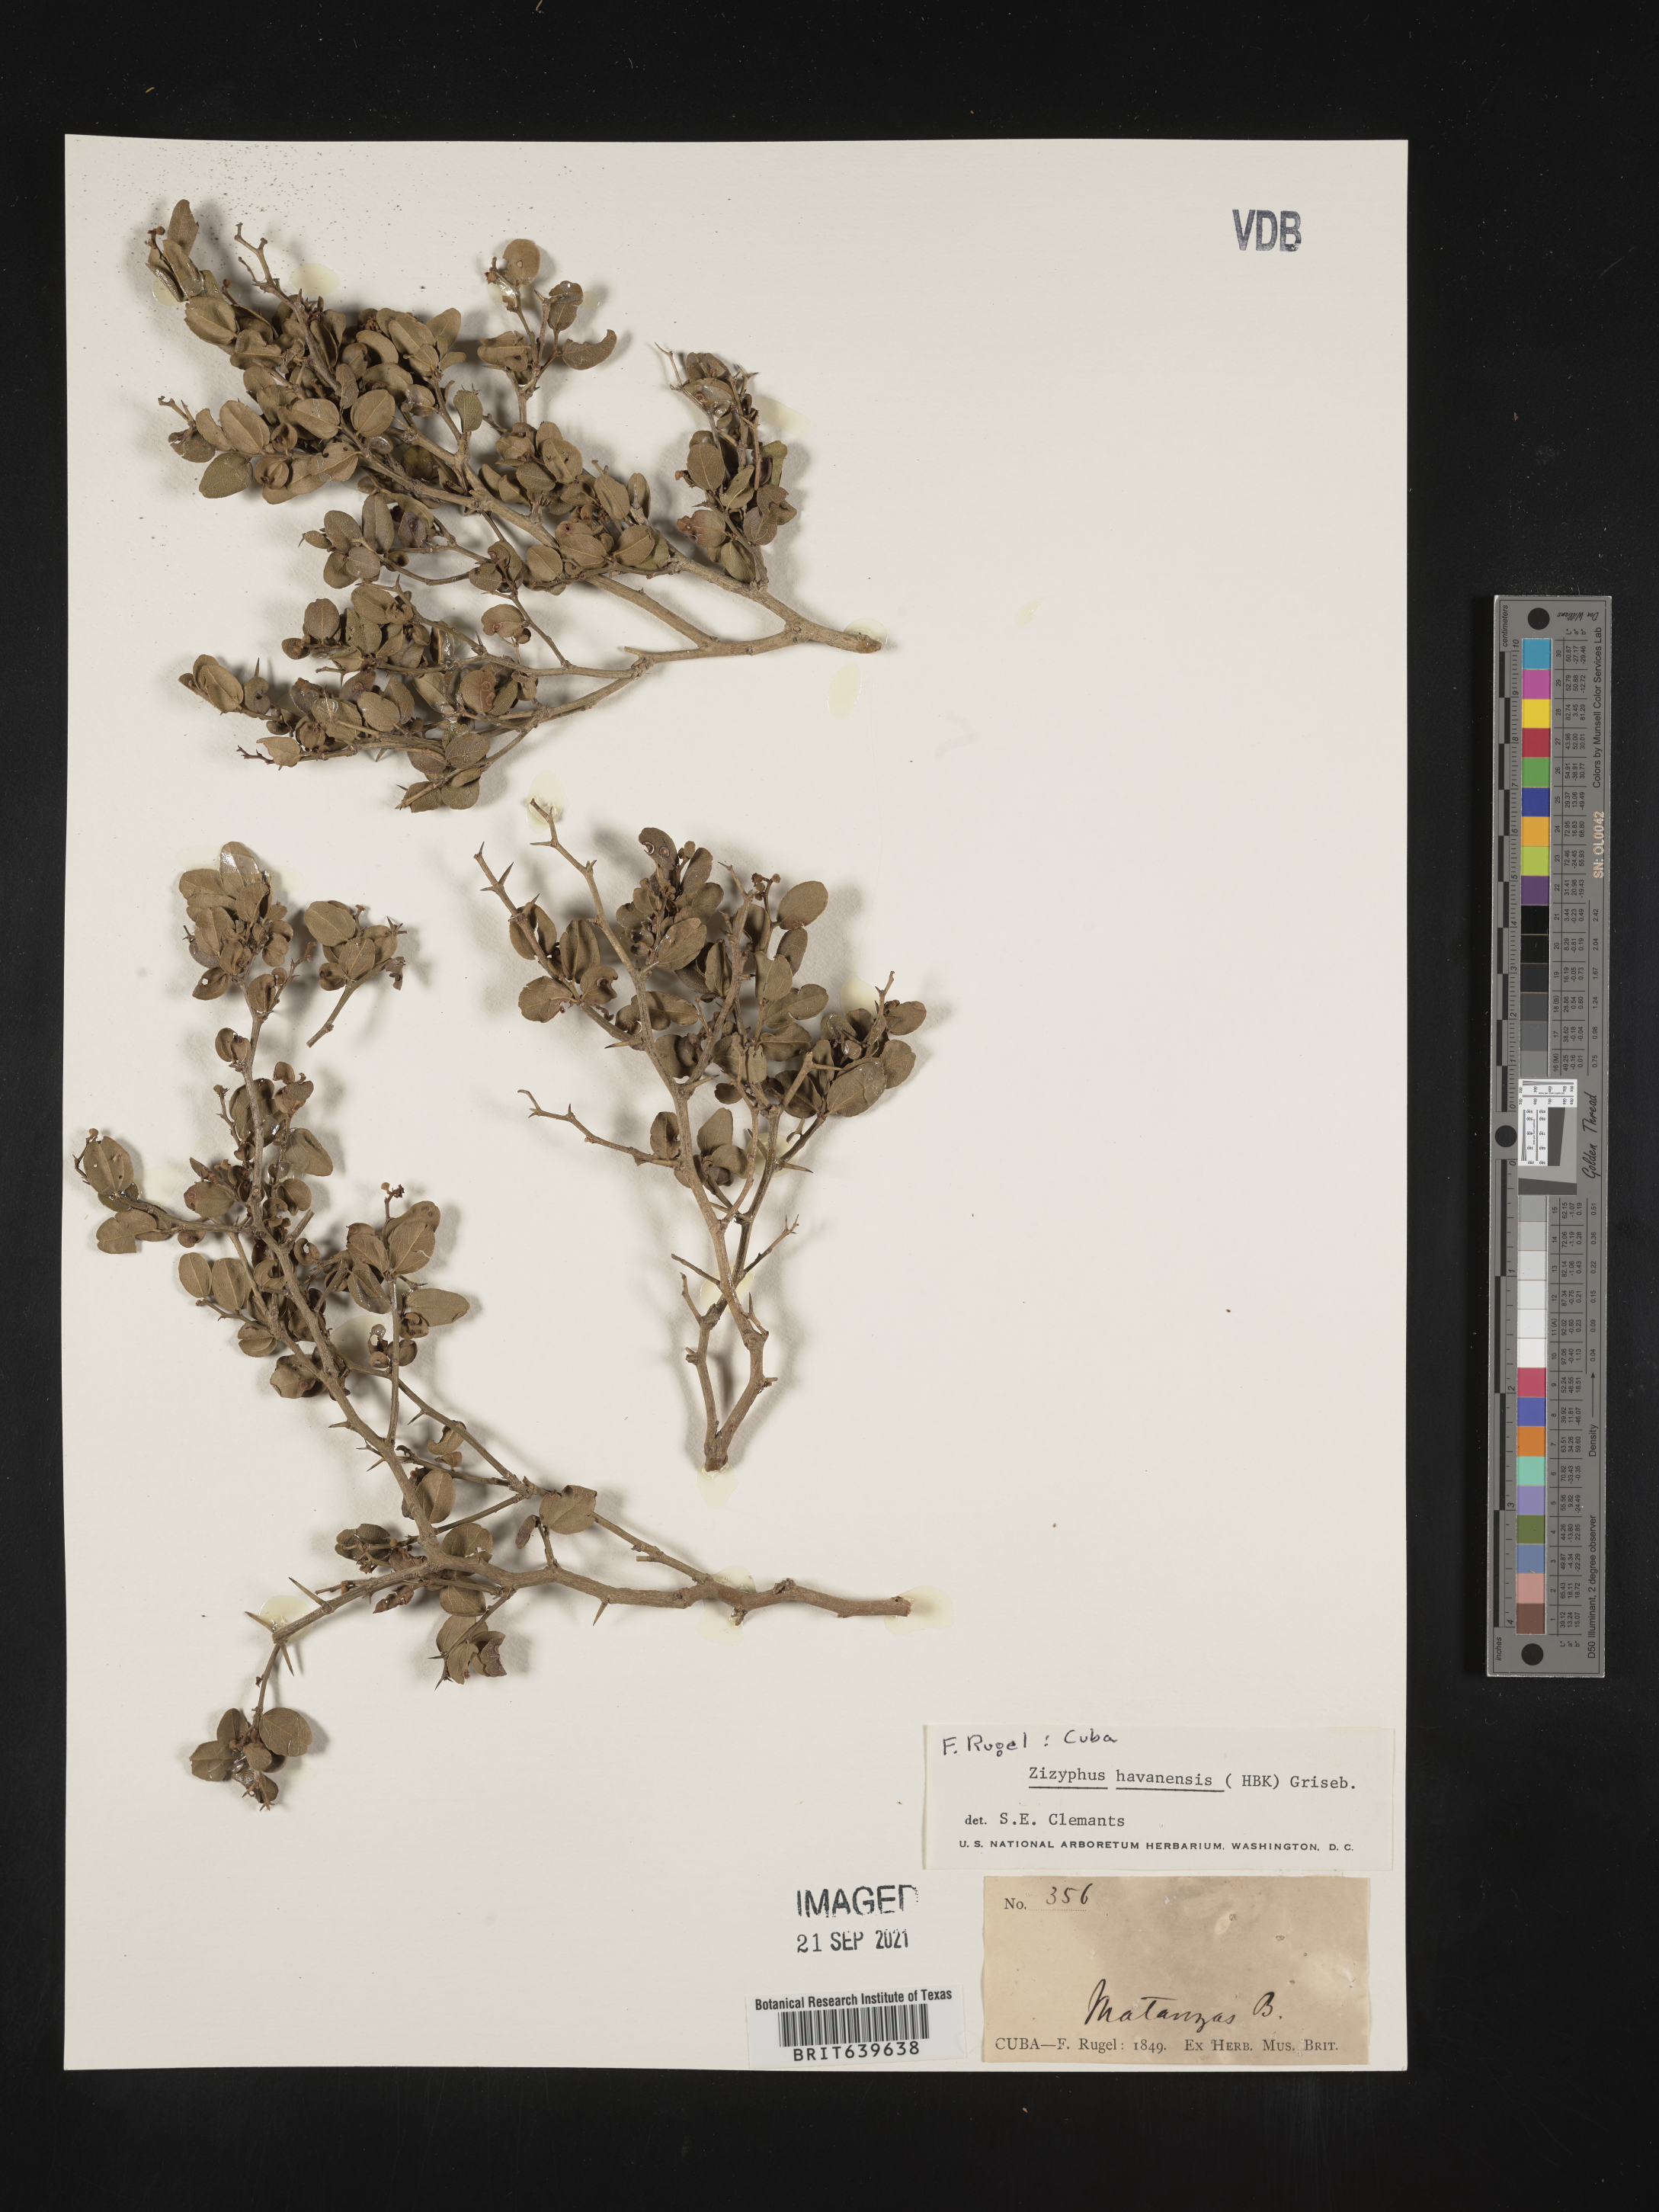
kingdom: Plantae
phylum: Tracheophyta
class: Magnoliopsida
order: Rosales
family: Rhamnaceae
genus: Ziziphus
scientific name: Ziziphus
